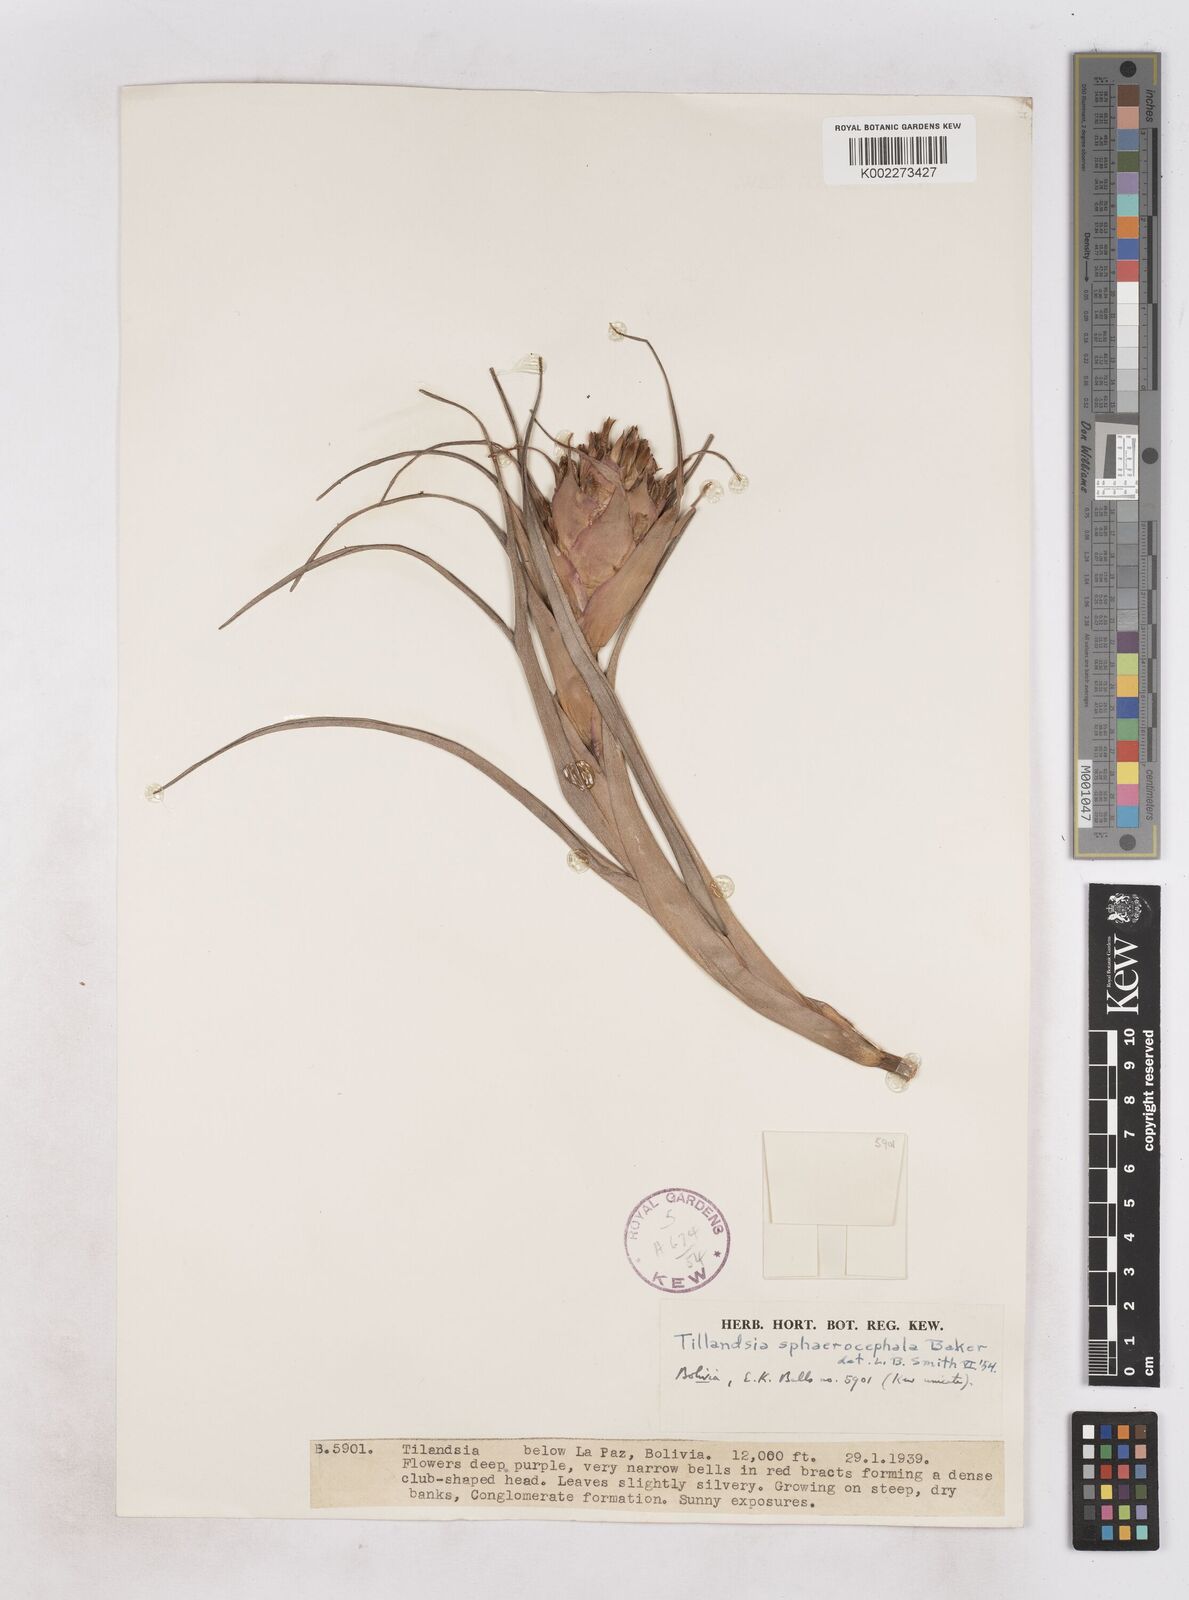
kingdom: Plantae
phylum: Tracheophyta
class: Liliopsida
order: Poales
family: Bromeliaceae
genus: Tillandsia
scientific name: Tillandsia sphaerocephala
